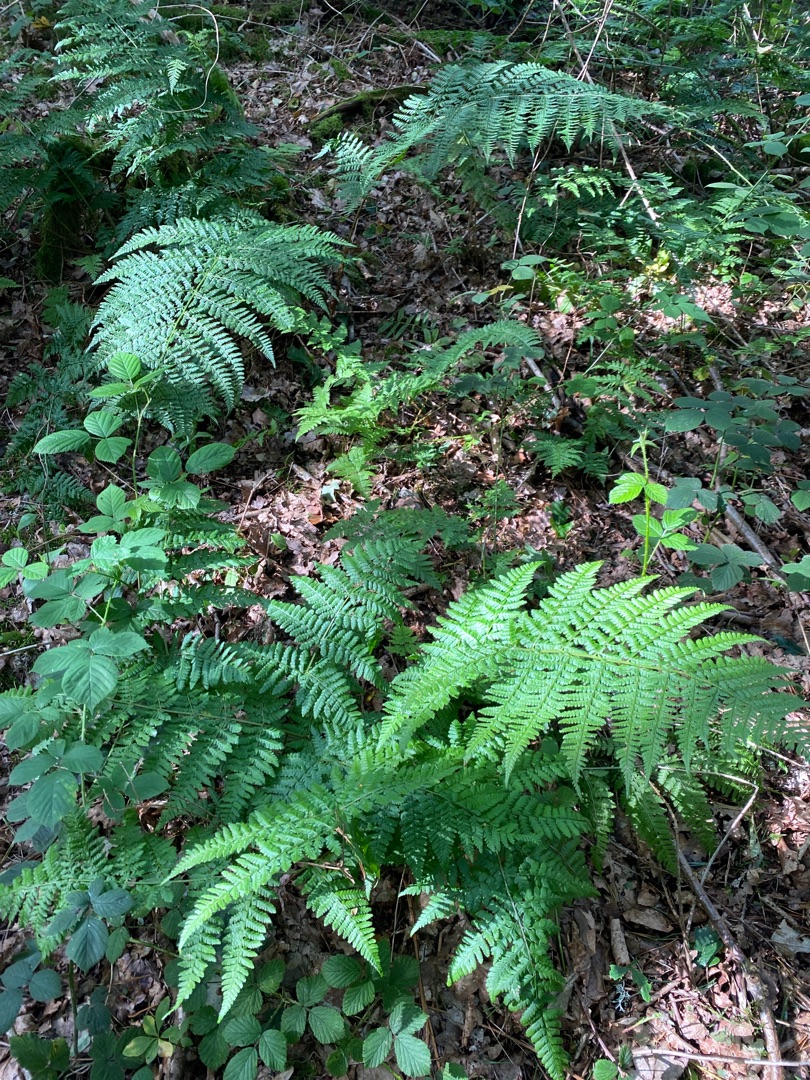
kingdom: Plantae
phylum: Tracheophyta
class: Polypodiopsida
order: Polypodiales
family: Dryopteridaceae
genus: Dryopteris
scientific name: Dryopteris dilatata
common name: Bredbladet mangeløv
